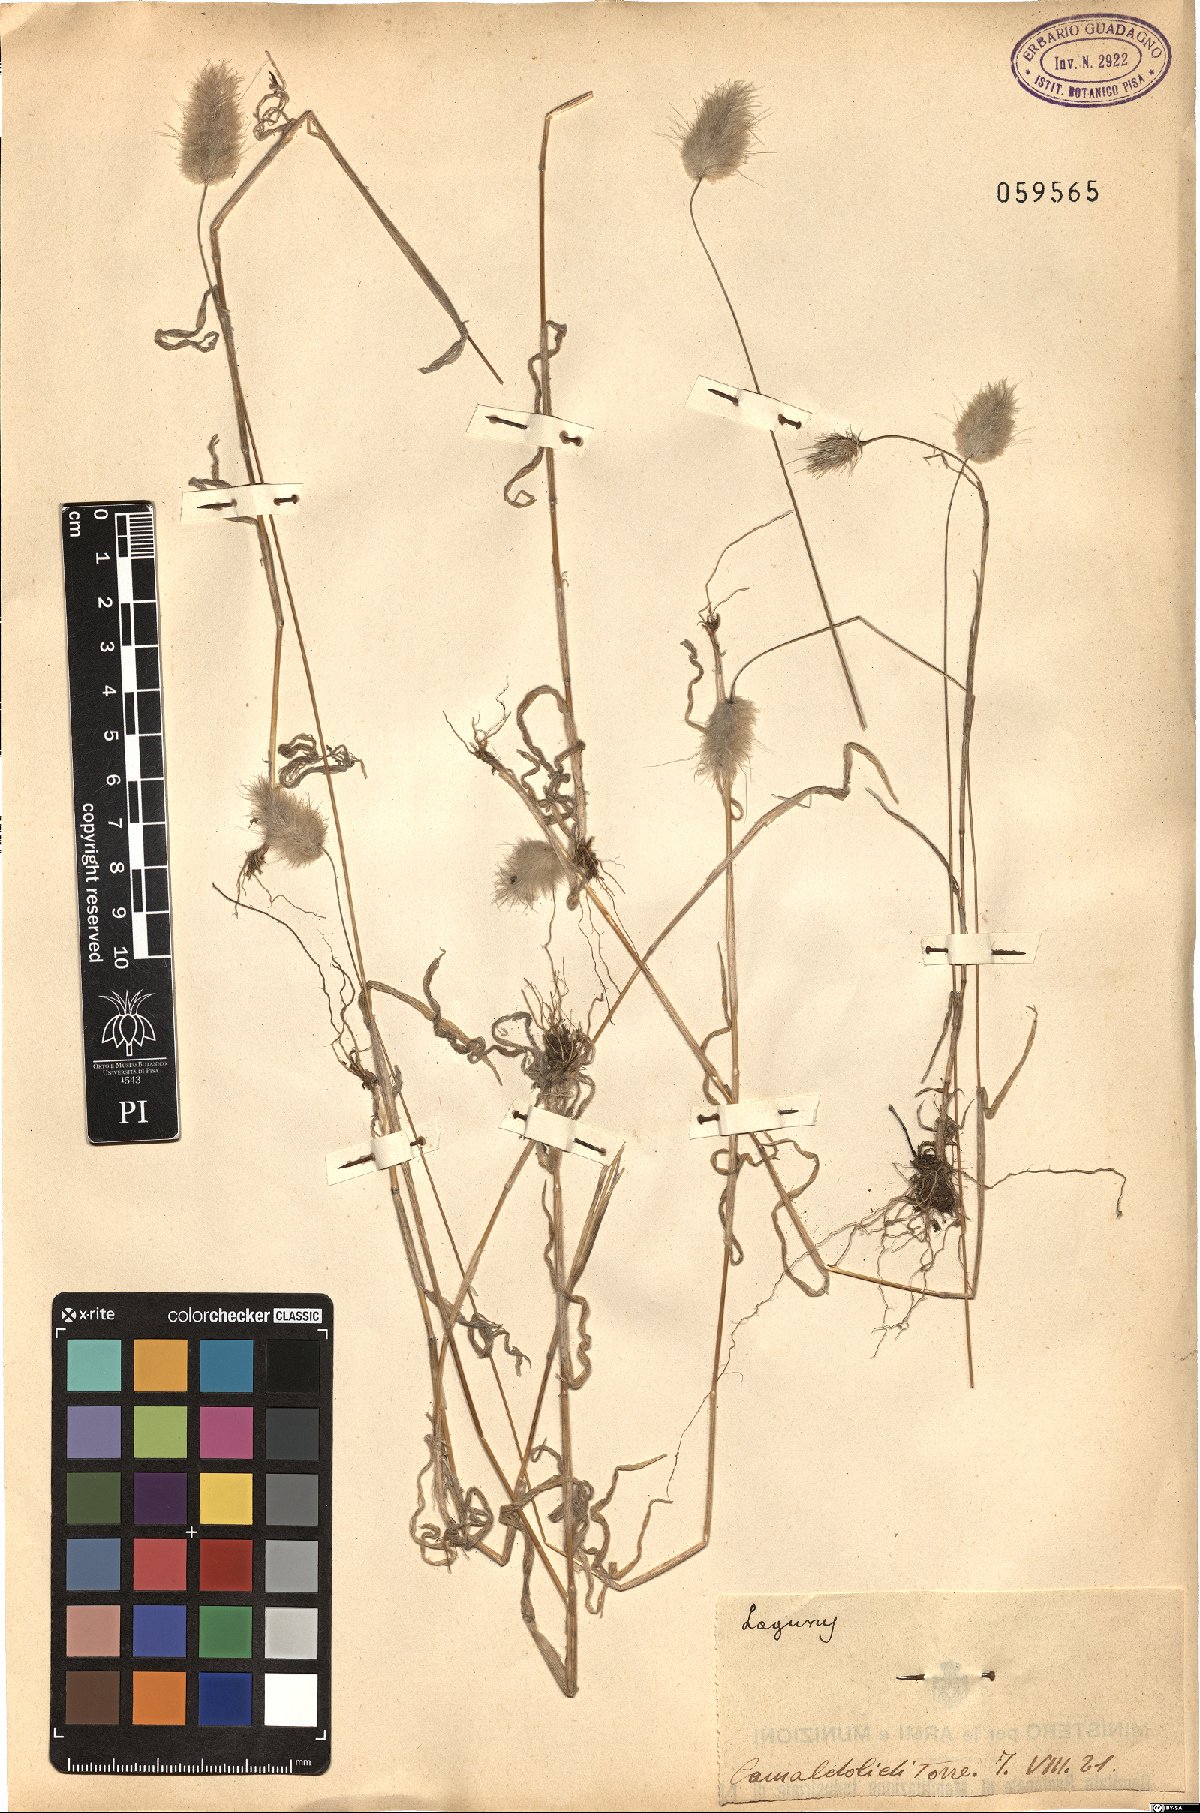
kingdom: Plantae
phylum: Tracheophyta
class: Liliopsida
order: Poales
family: Poaceae
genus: Lagurus
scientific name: Lagurus
